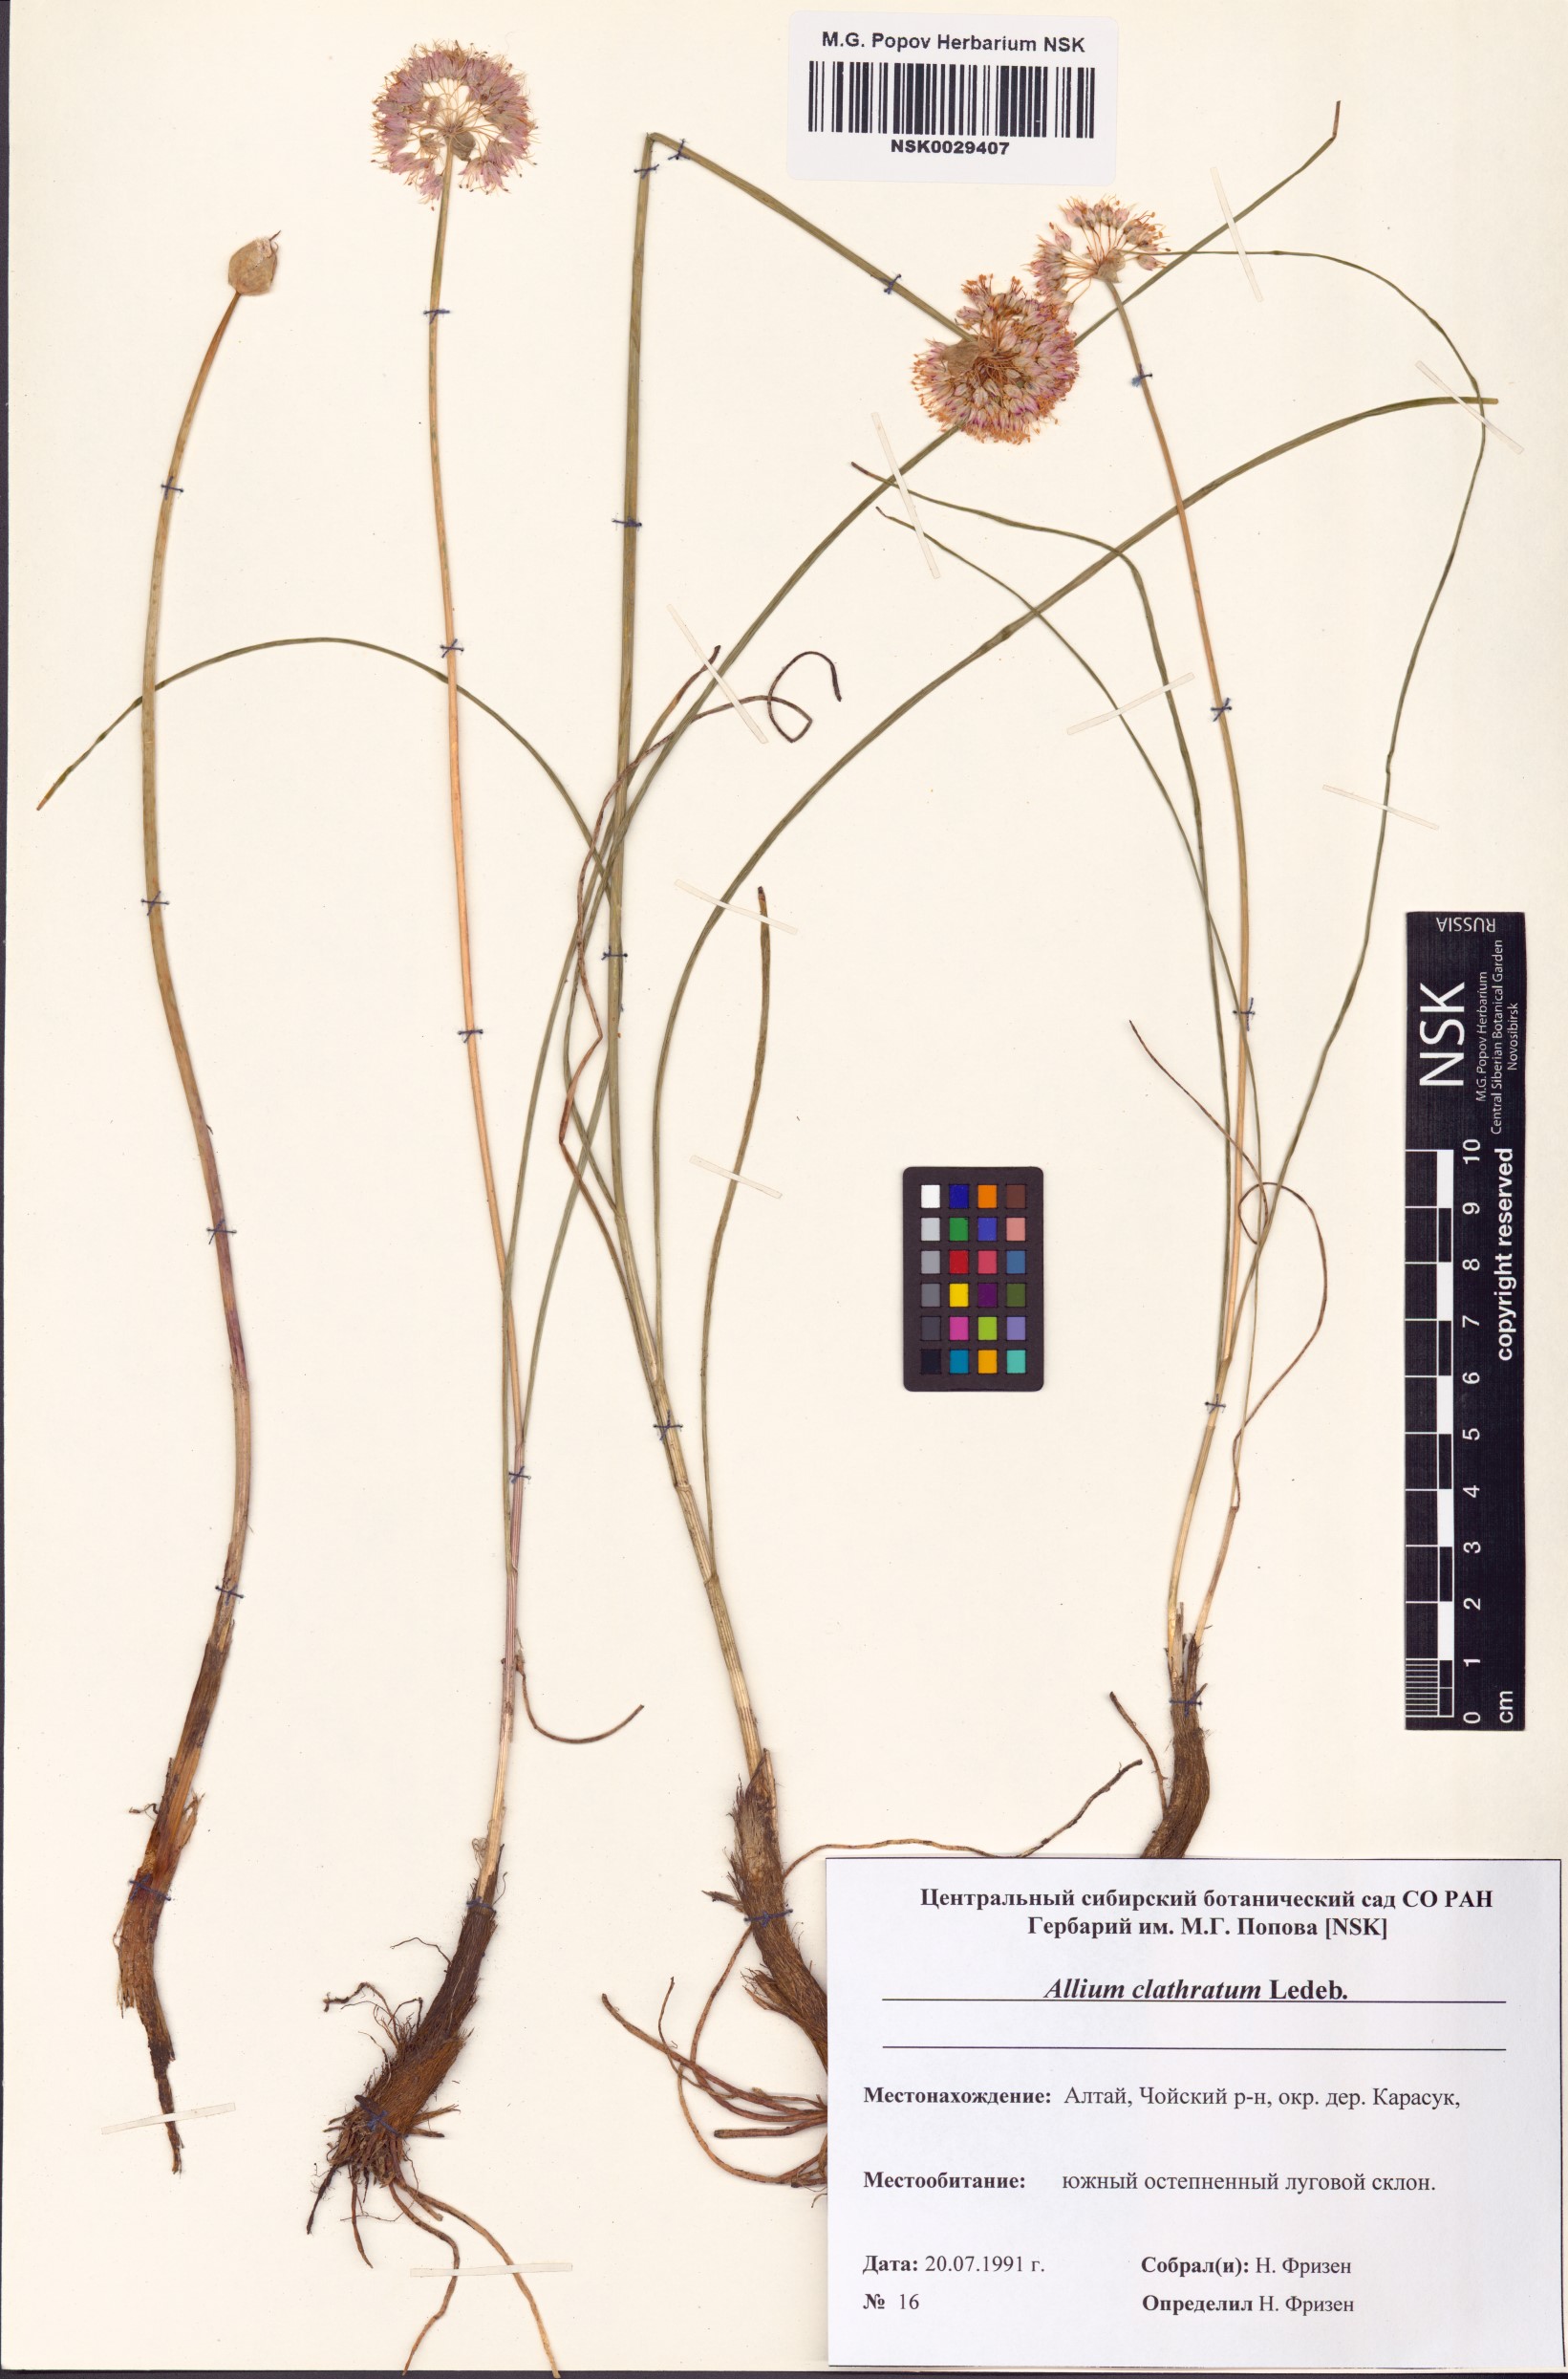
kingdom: Plantae
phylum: Tracheophyta
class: Liliopsida
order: Asparagales
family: Amaryllidaceae
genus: Allium
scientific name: Allium clathratum
